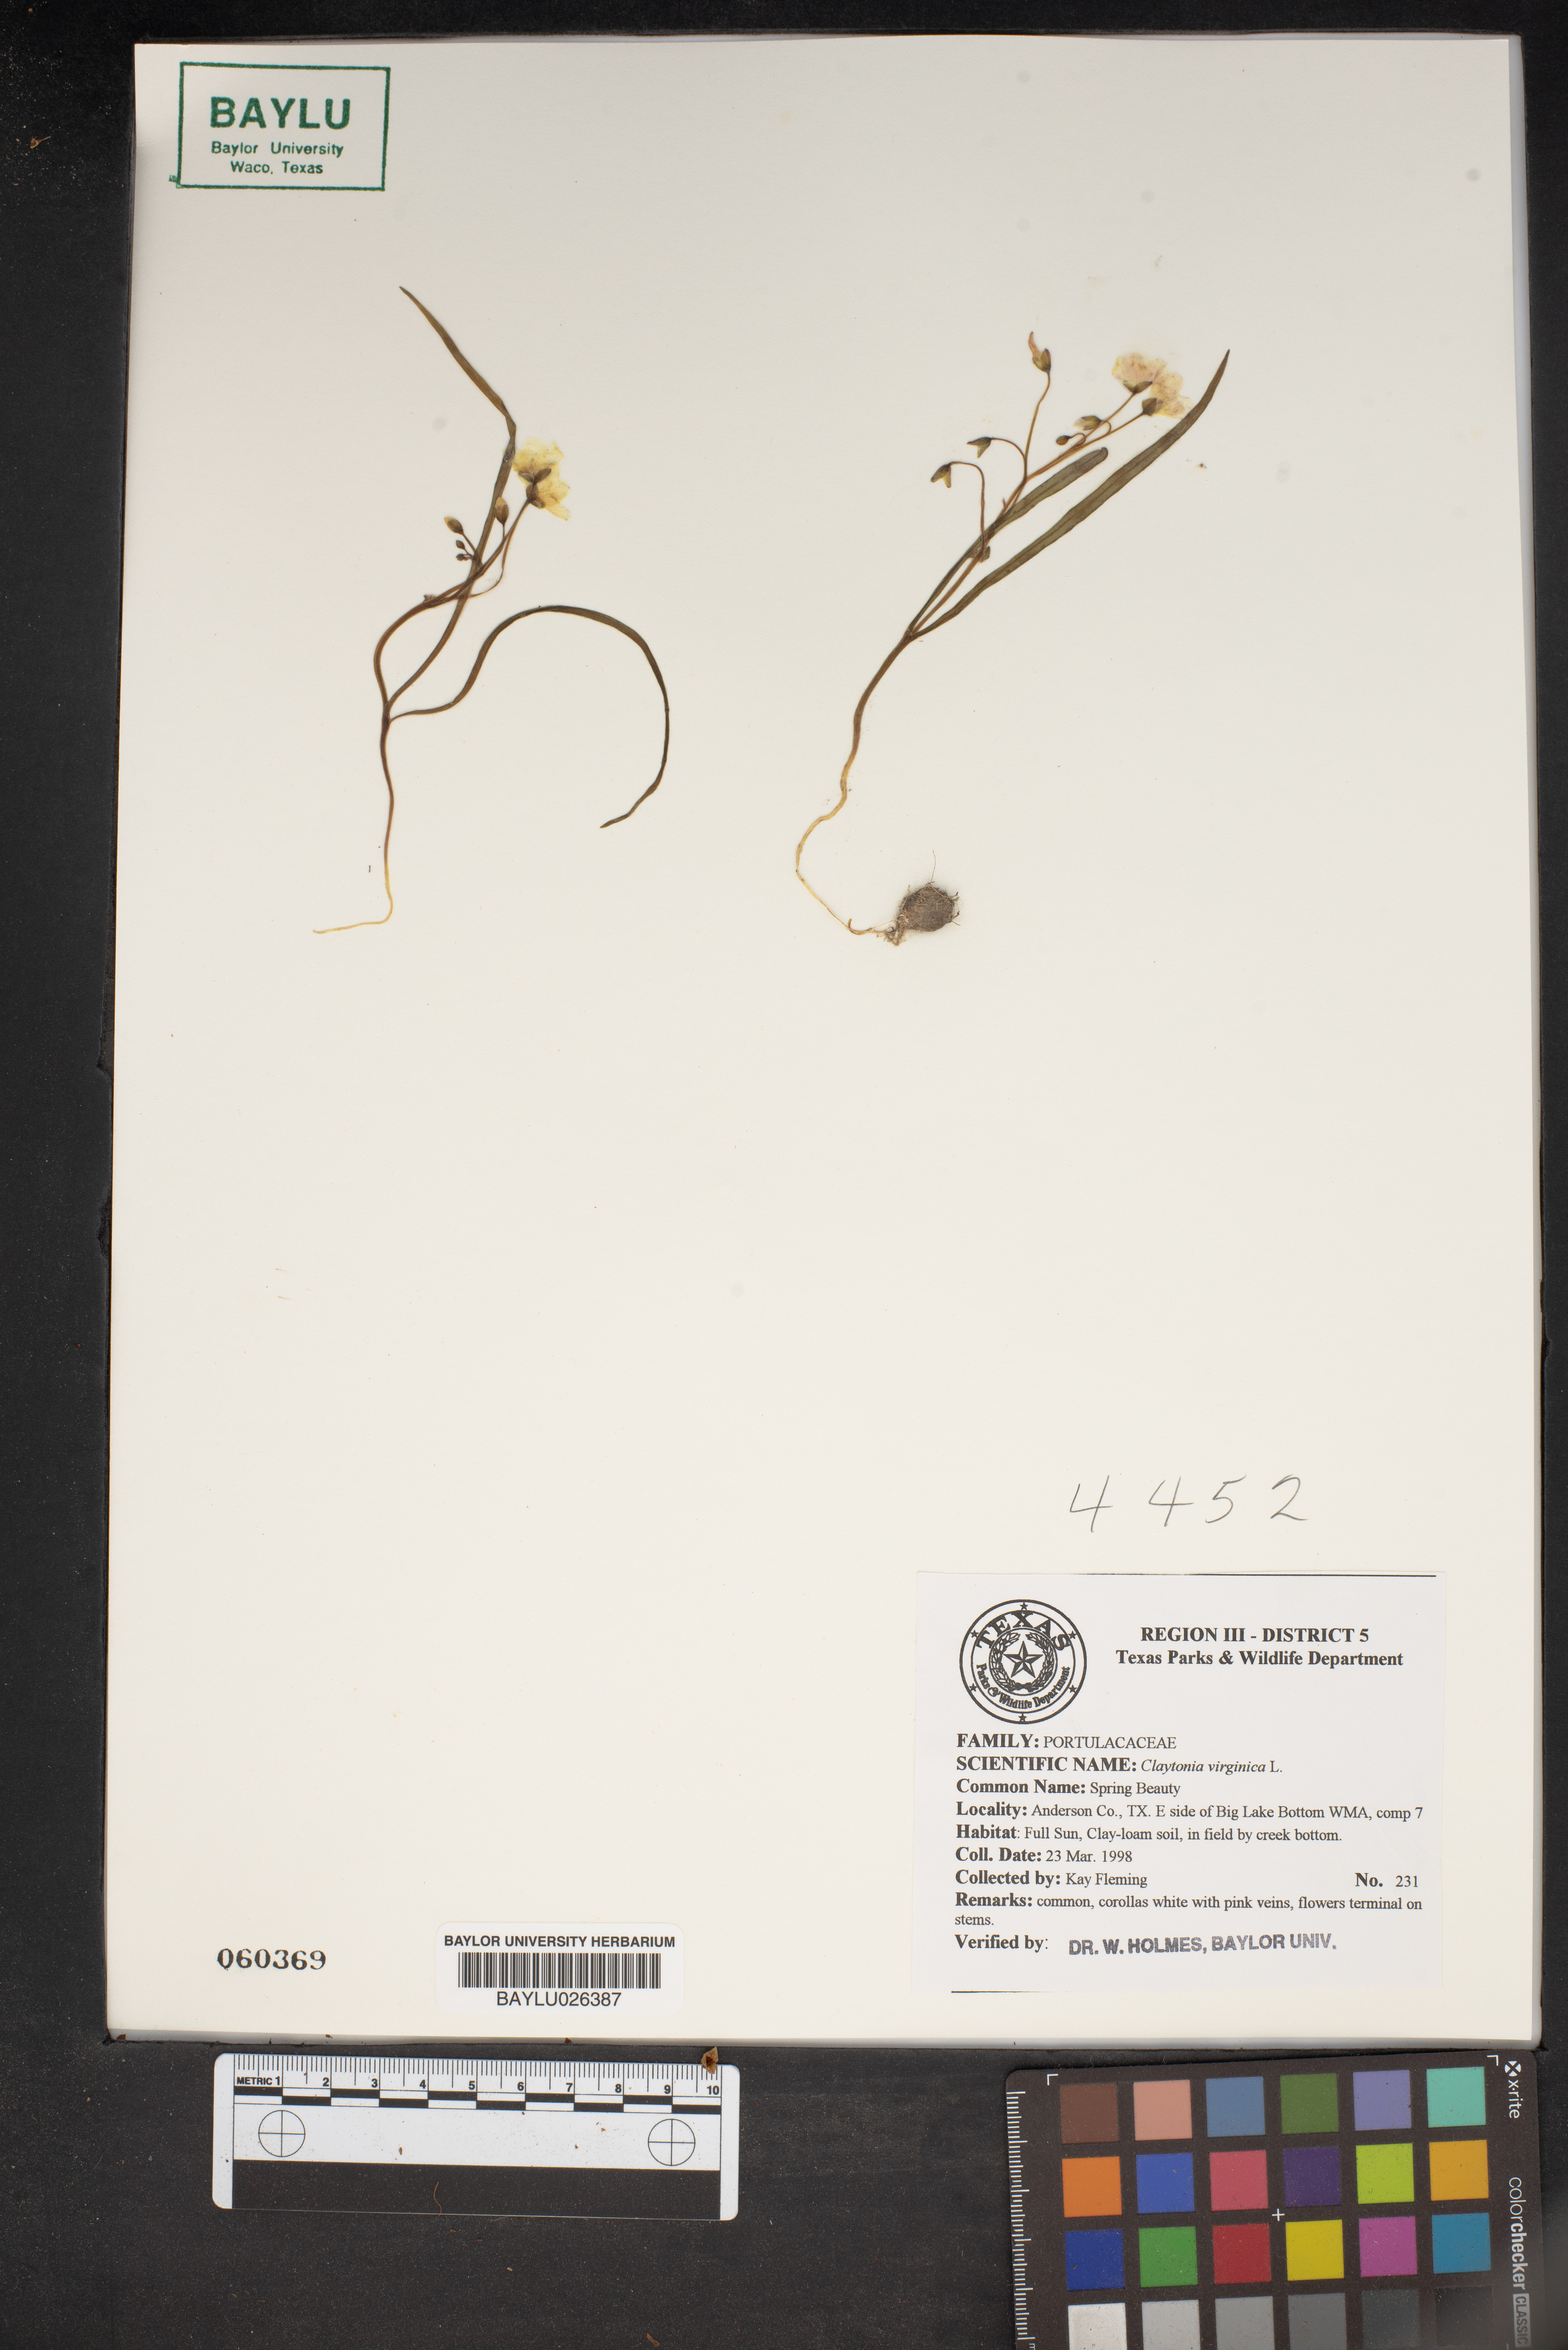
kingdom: Plantae
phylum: Tracheophyta
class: Magnoliopsida
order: Caryophyllales
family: Montiaceae
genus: Claytonia
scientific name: Claytonia virginica
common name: Virginia springbeauty
